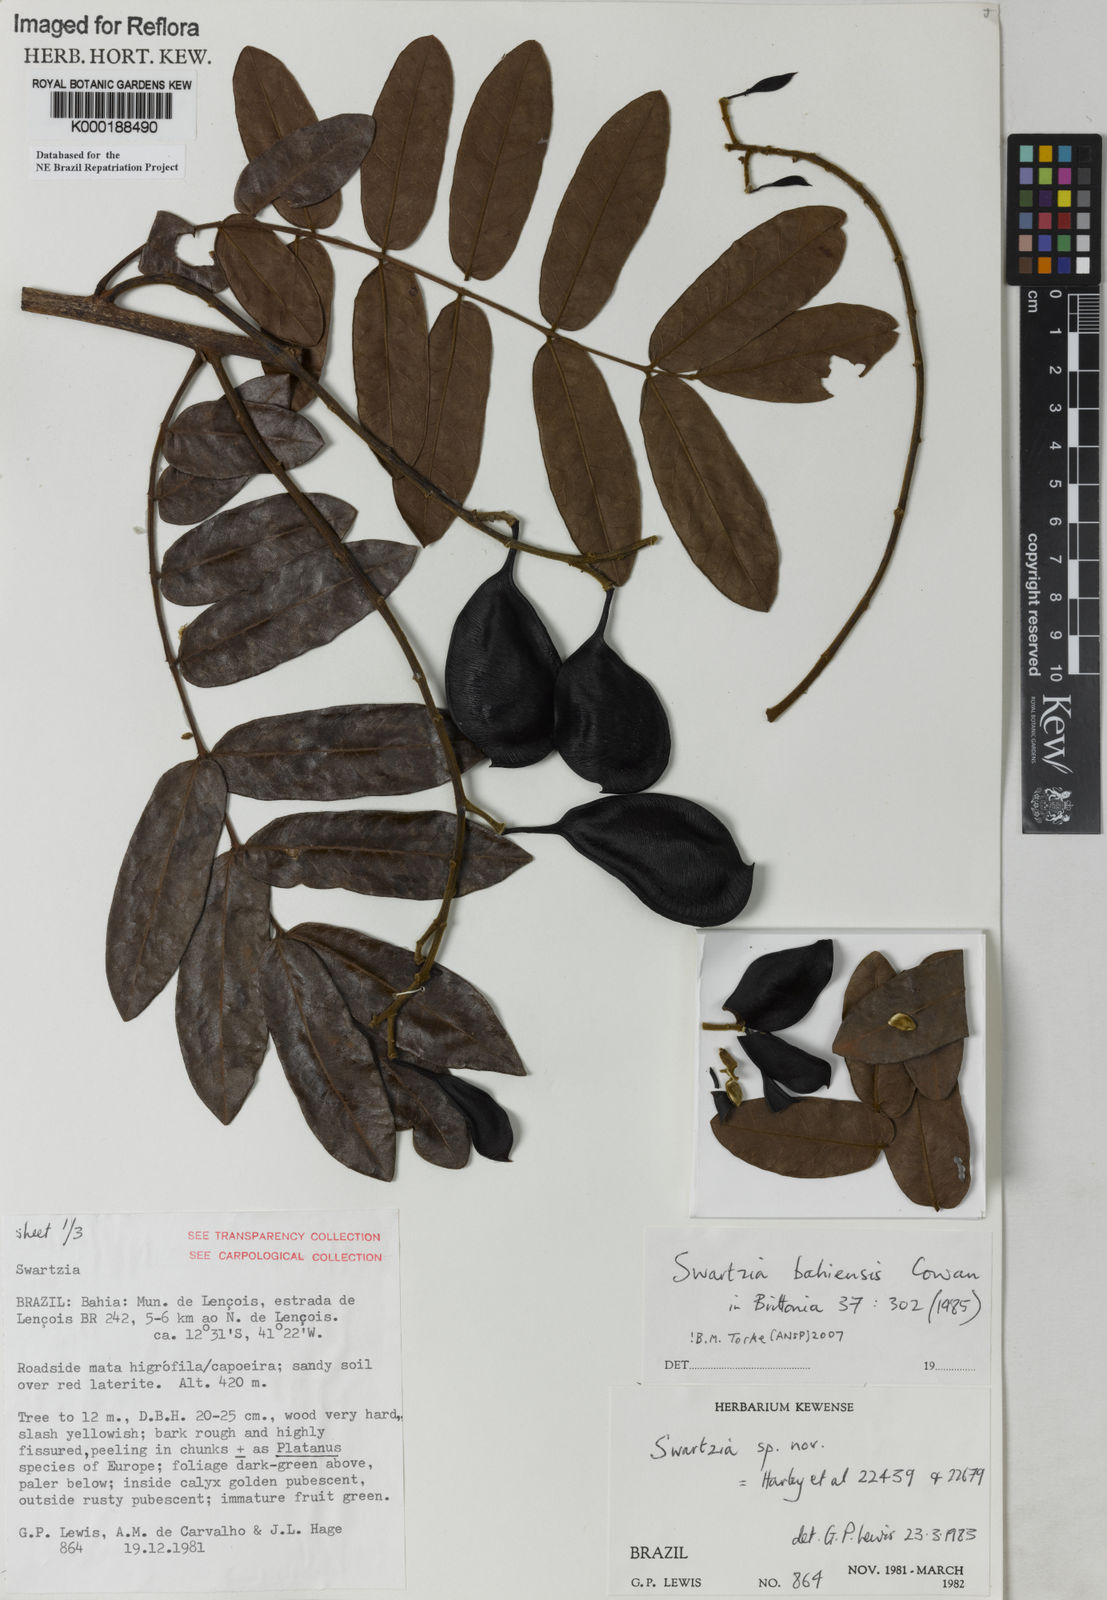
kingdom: Plantae
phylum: Tracheophyta
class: Magnoliopsida
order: Fabales
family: Fabaceae
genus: Swartzia
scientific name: Swartzia bahiensis
